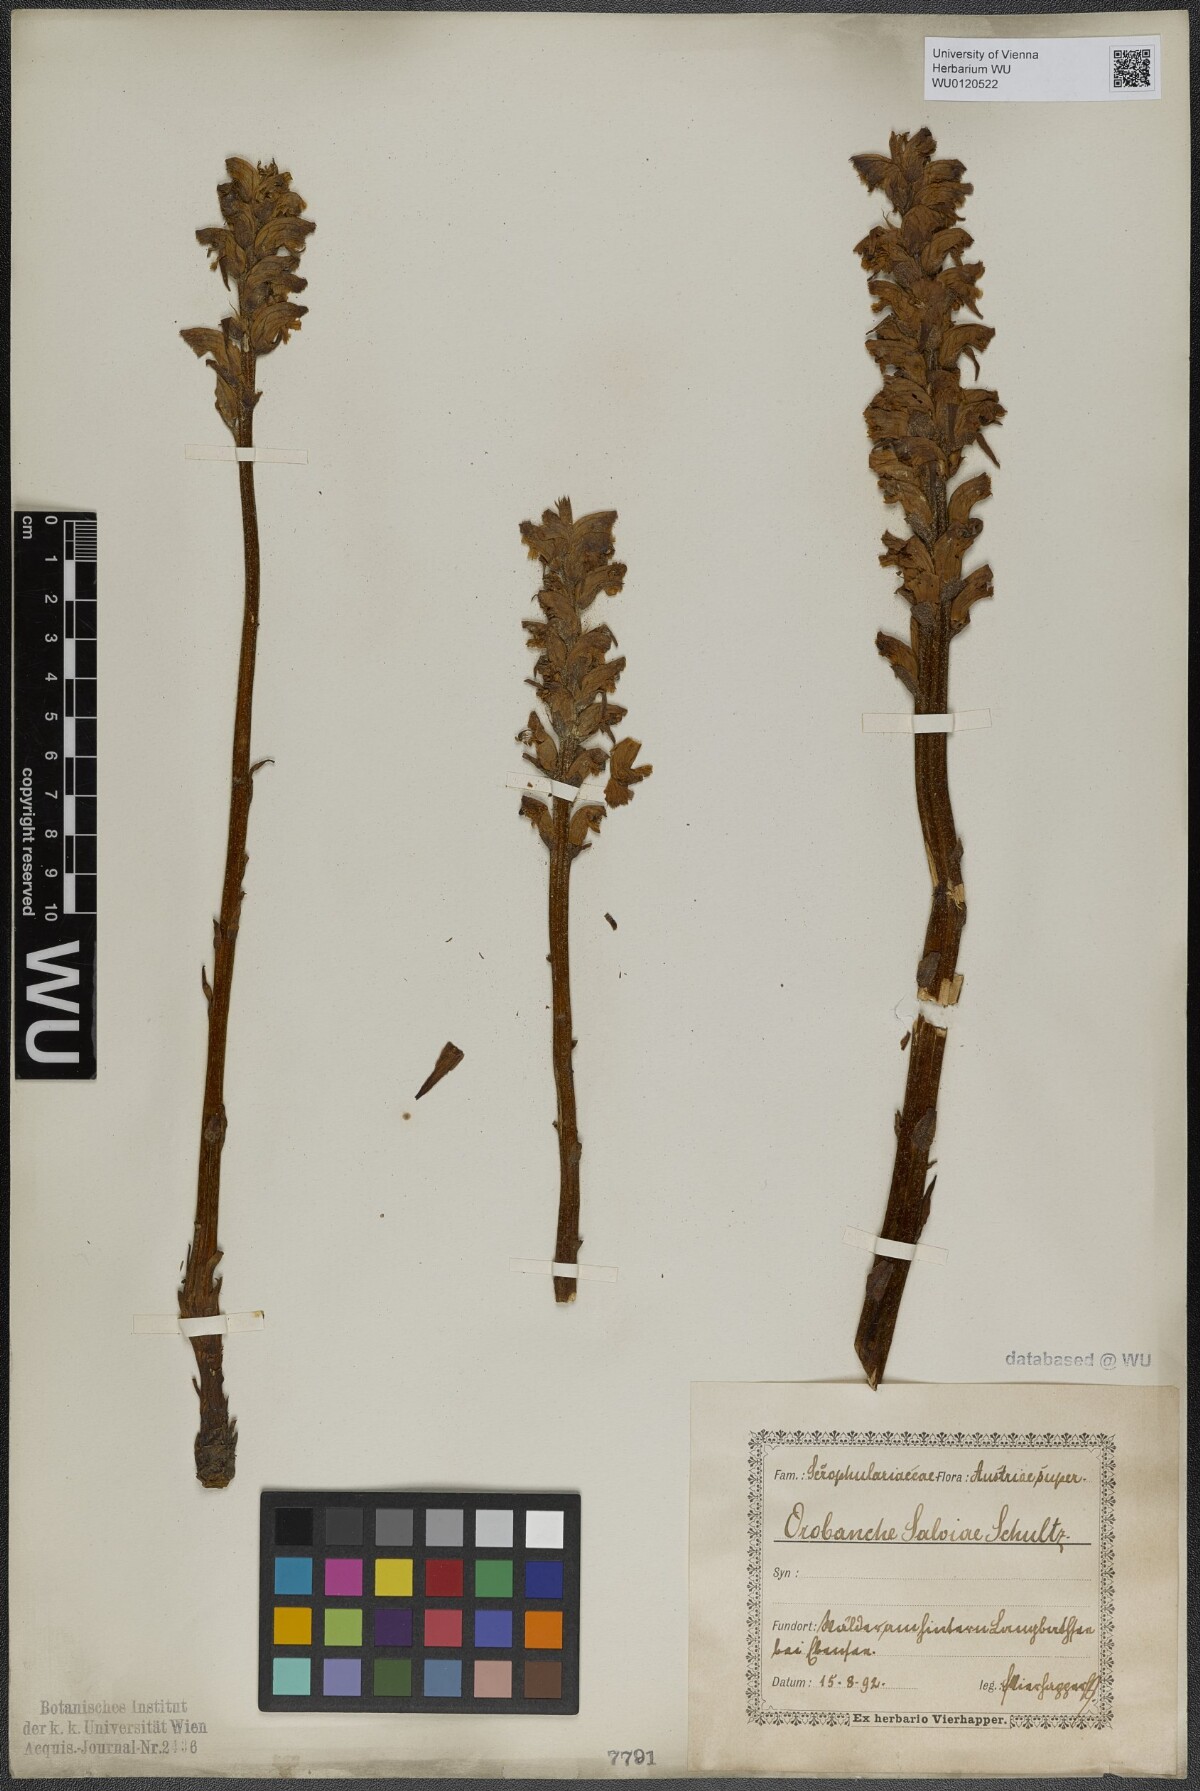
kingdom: Plantae
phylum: Tracheophyta
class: Magnoliopsida
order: Lamiales
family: Orobanchaceae
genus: Orobanche
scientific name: Orobanche salviae
